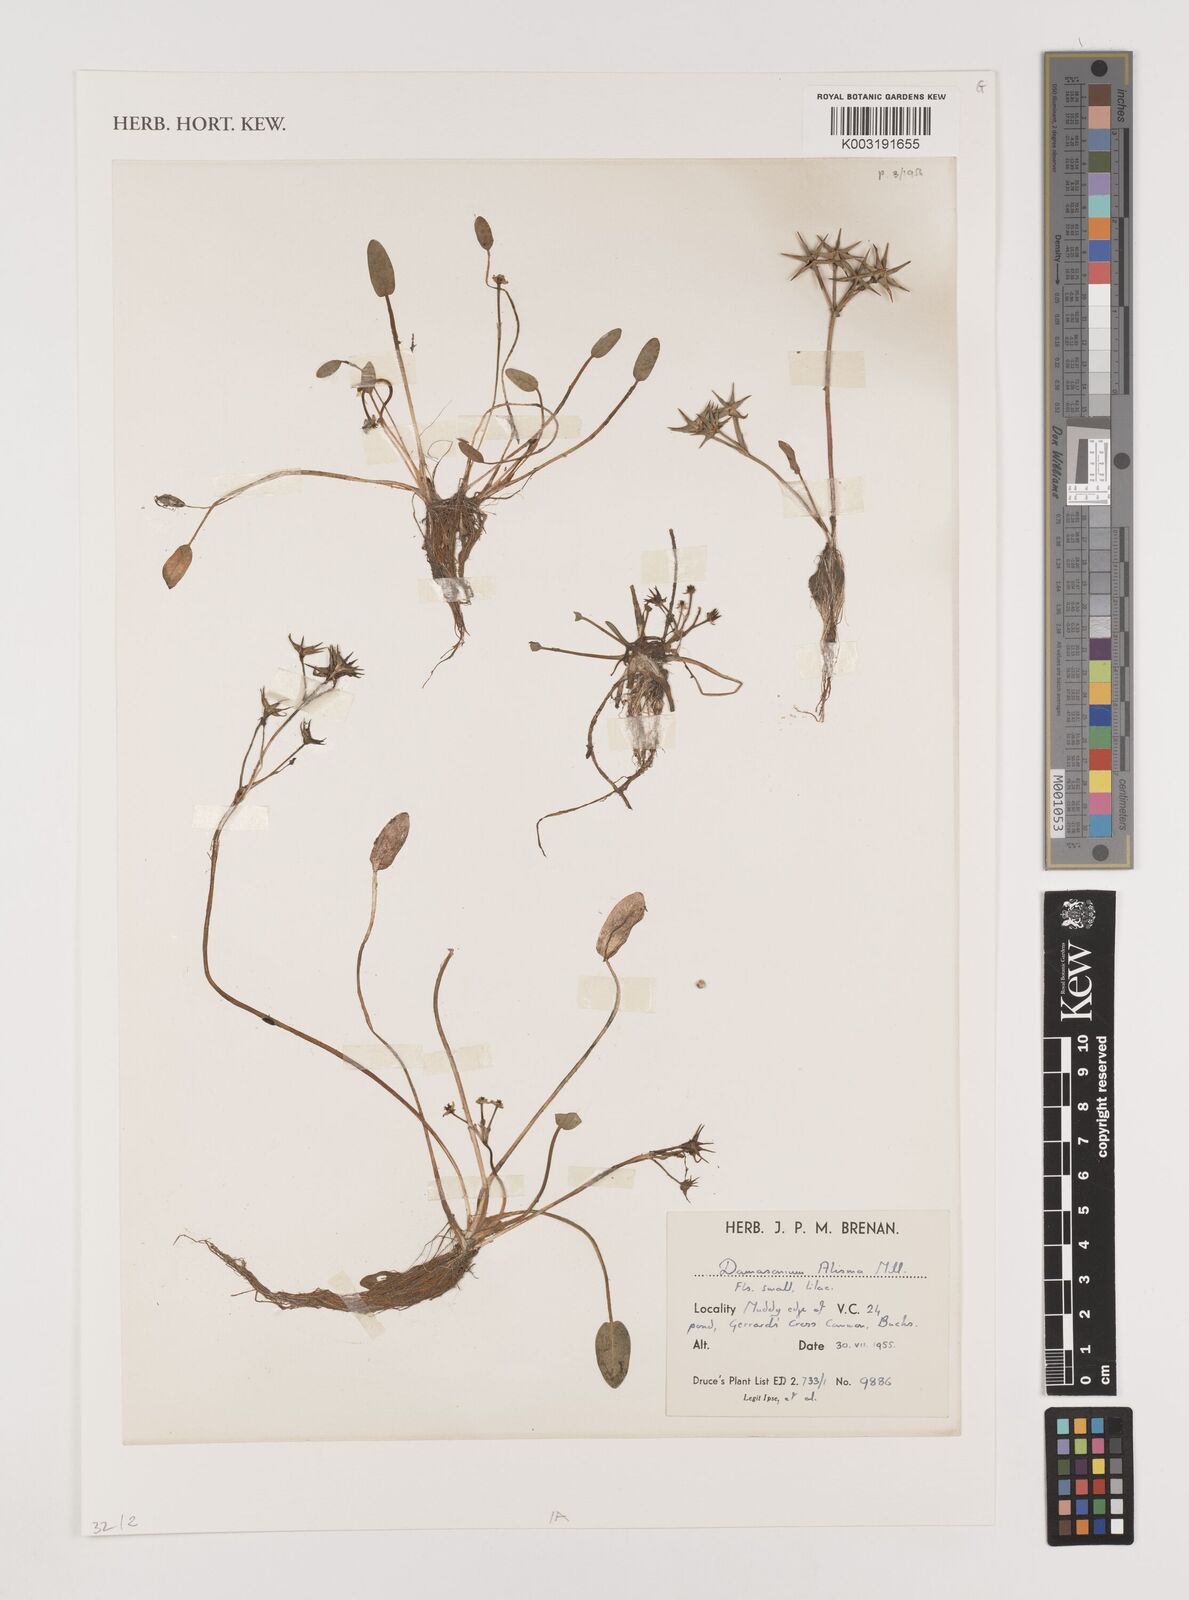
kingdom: Plantae
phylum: Tracheophyta
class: Liliopsida
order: Alismatales
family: Alismataceae
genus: Damasonium
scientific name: Damasonium alisma
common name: Starfruit
